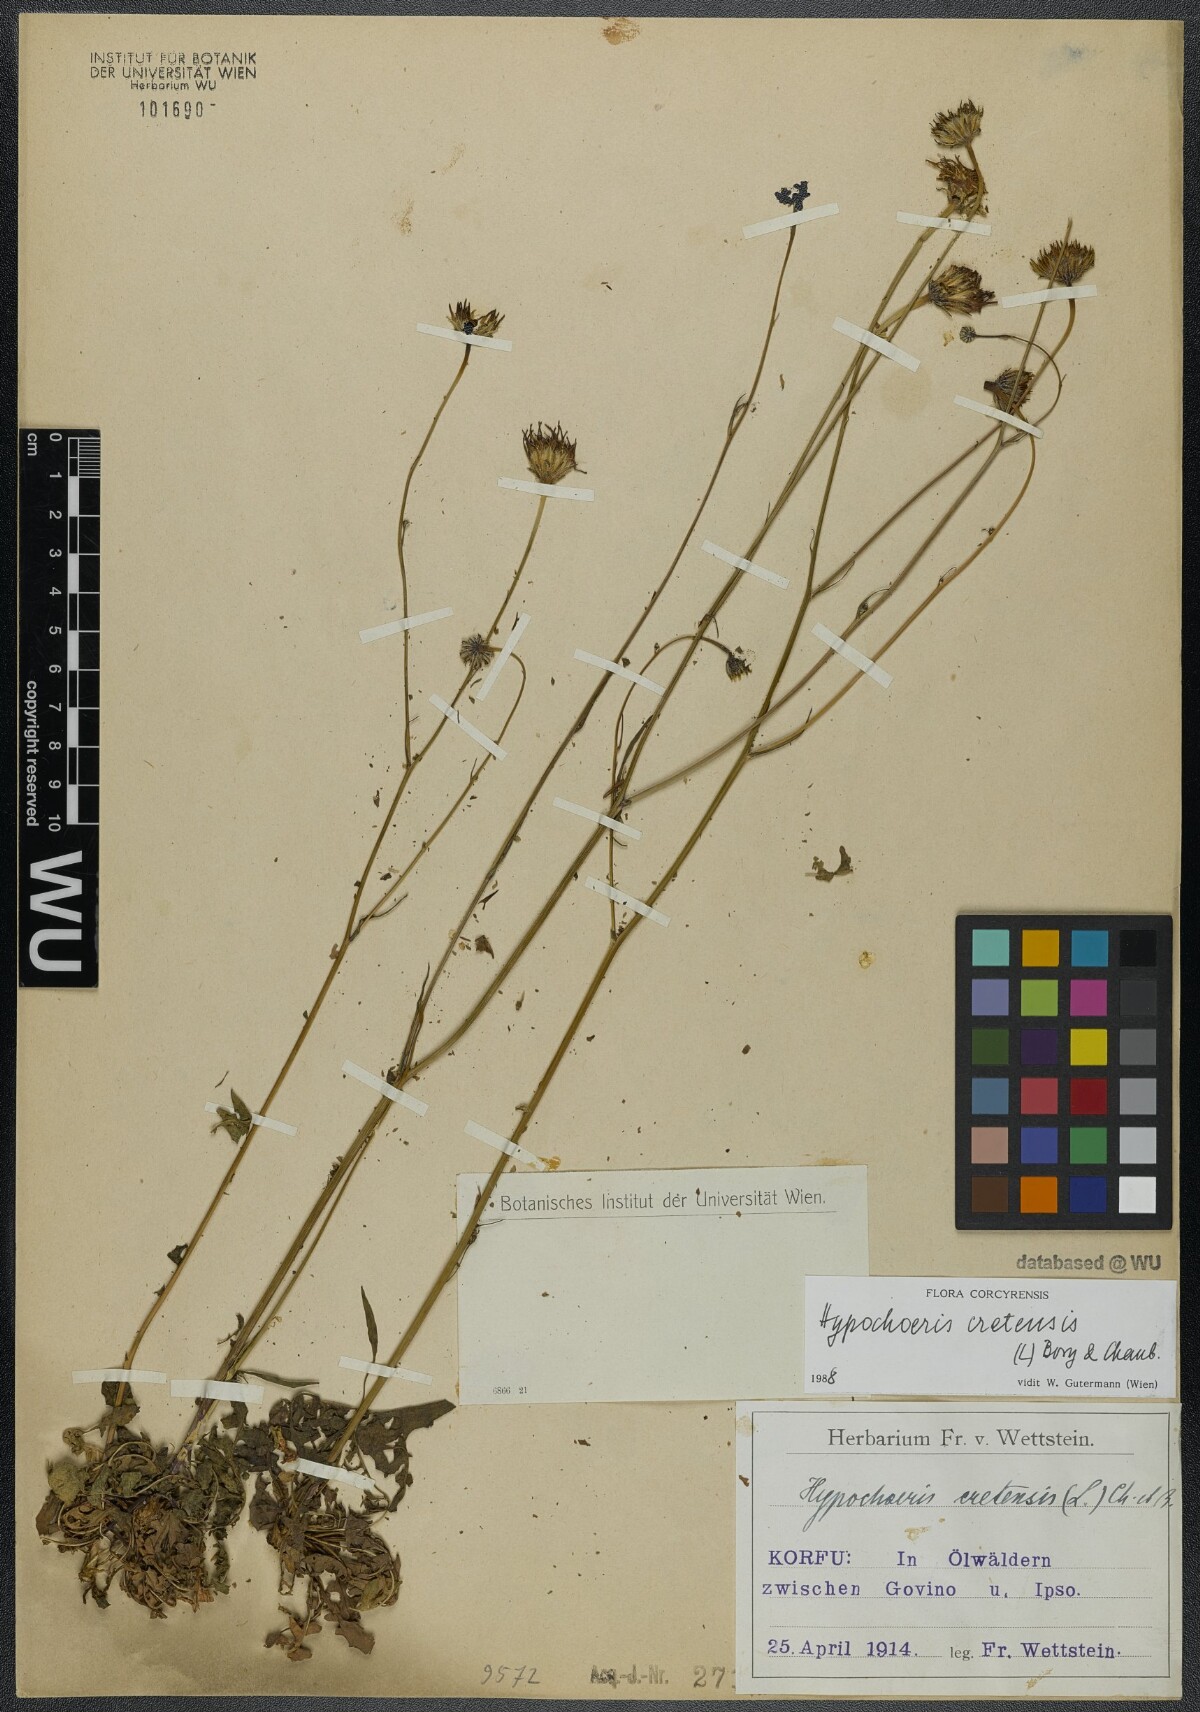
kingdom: Plantae
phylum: Tracheophyta
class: Magnoliopsida
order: Asterales
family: Asteraceae
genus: Hypochaeris
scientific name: Hypochaeris cretensis
